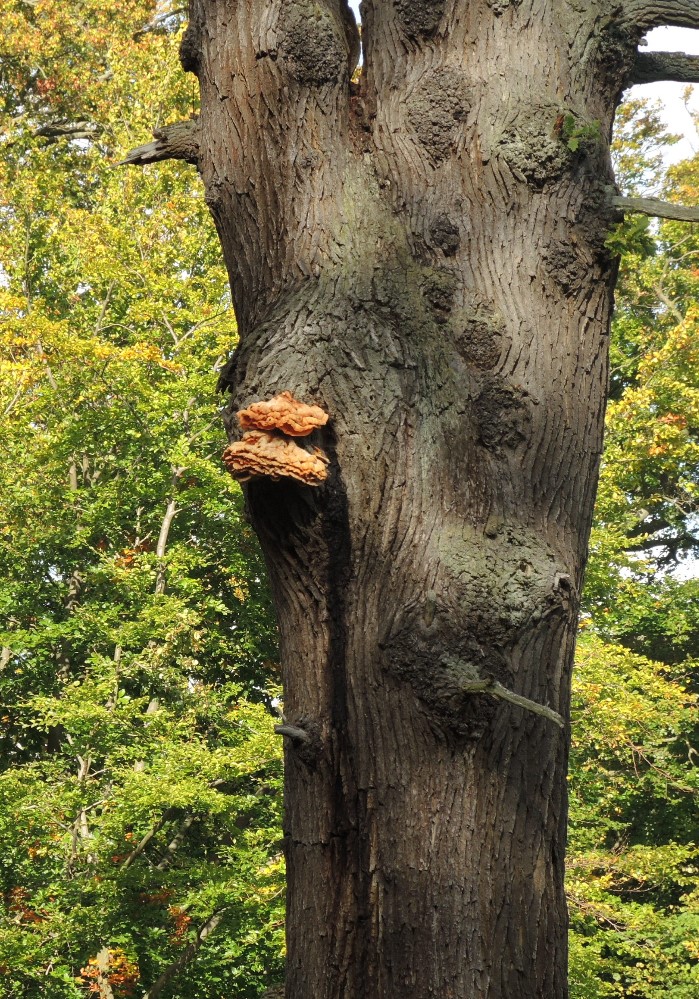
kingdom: Fungi
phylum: Basidiomycota
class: Agaricomycetes
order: Polyporales
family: Laetiporaceae
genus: Laetiporus
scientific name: Laetiporus sulphureus
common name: svovlporesvamp
